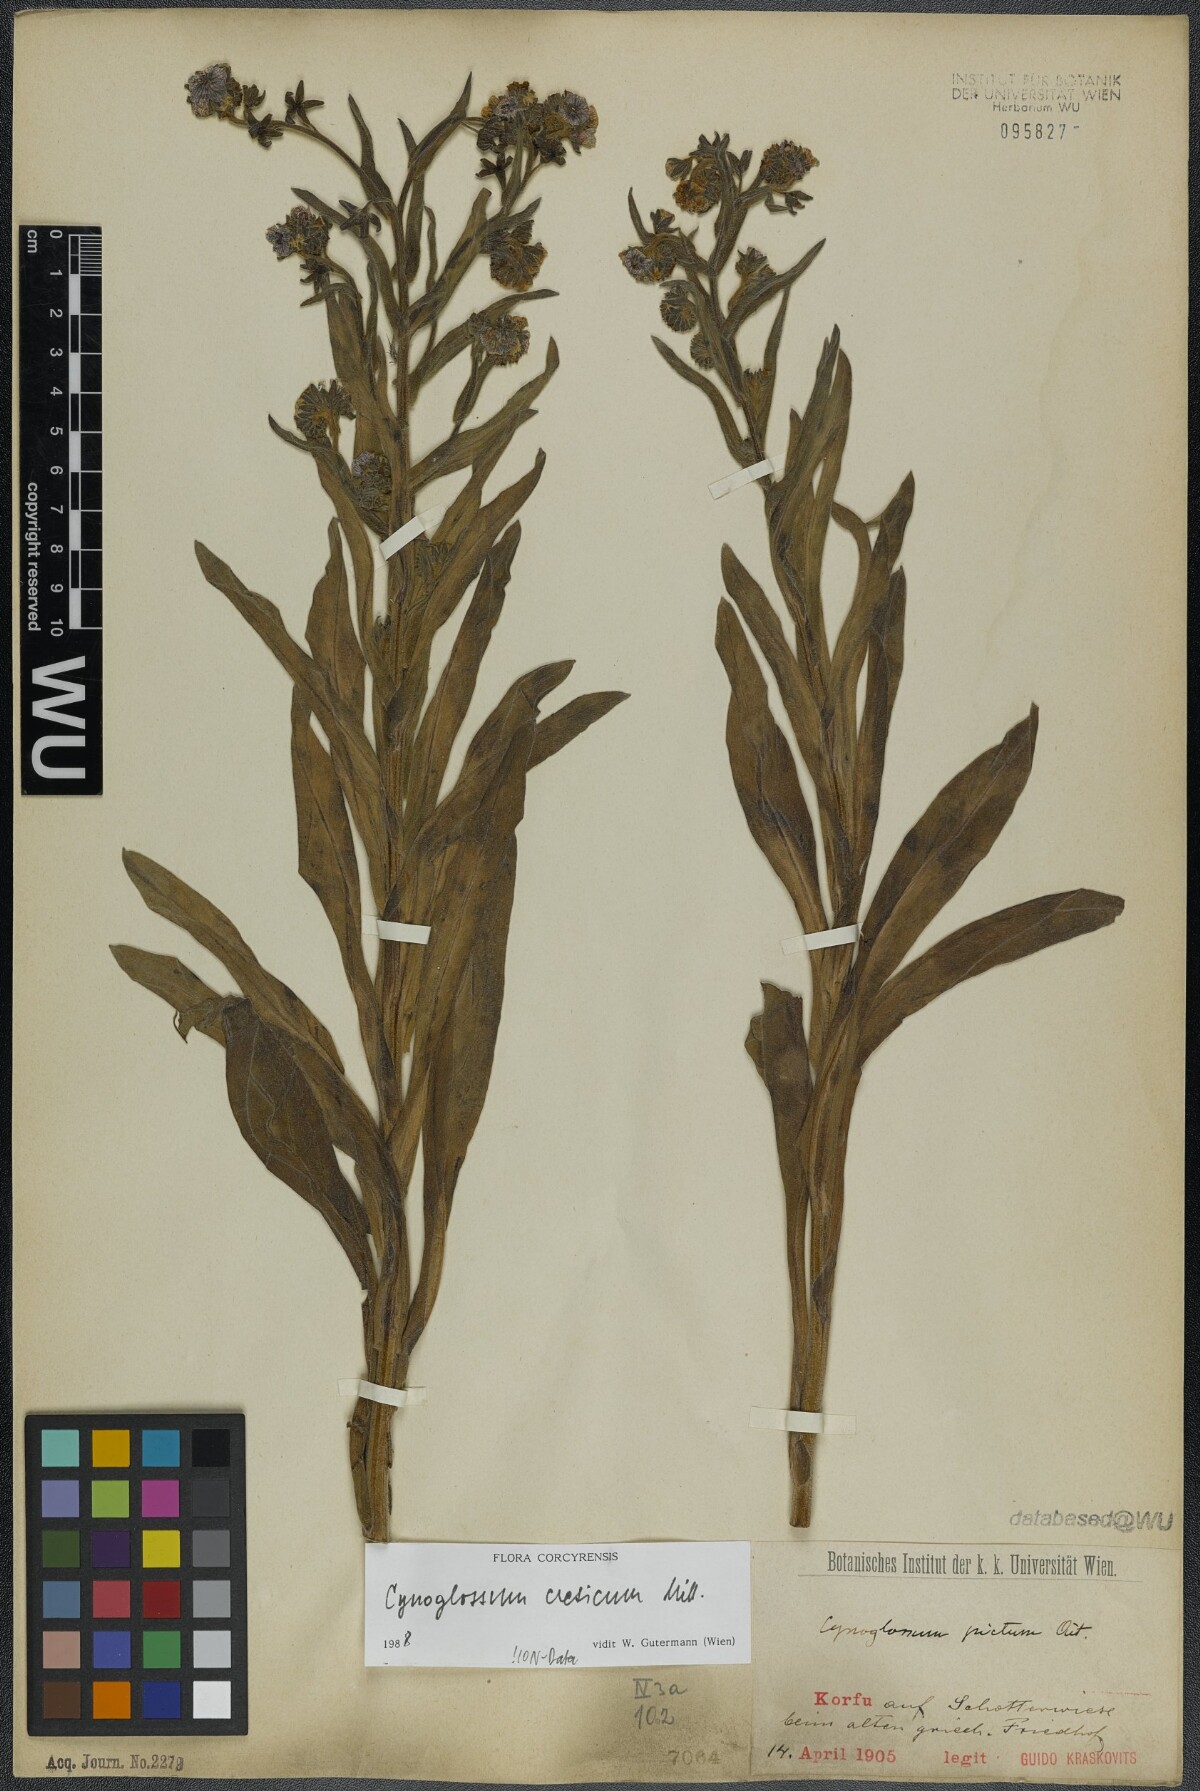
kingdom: Plantae
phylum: Tracheophyta
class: Magnoliopsida
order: Boraginales
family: Boraginaceae
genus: Cynoglossum
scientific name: Cynoglossum creticum
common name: Blue hound's tongue
